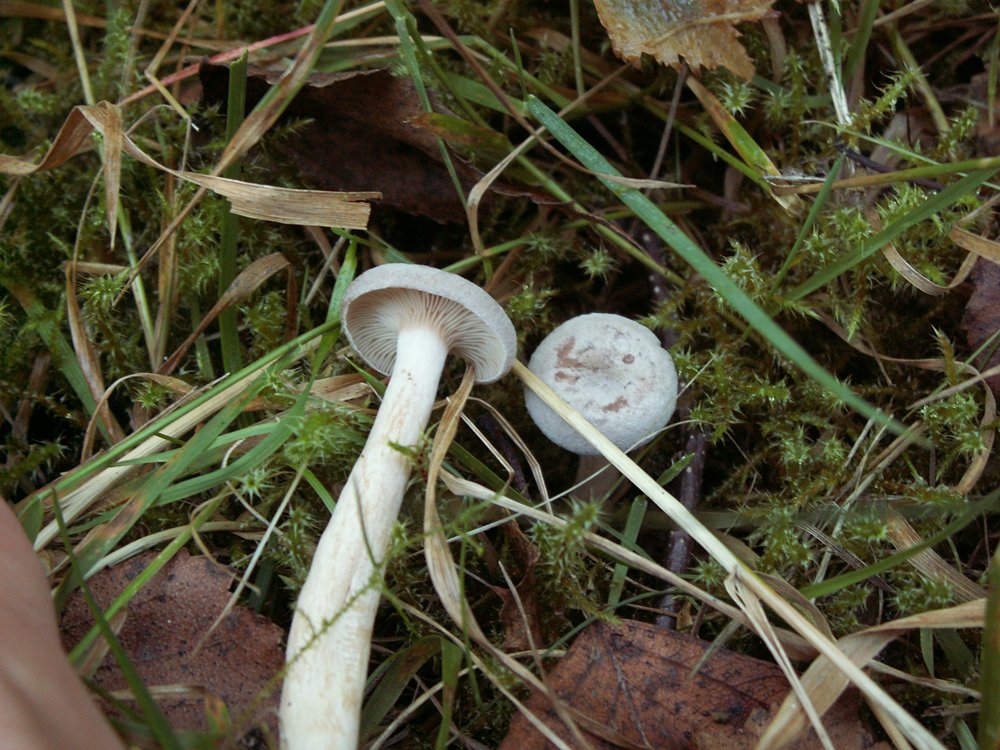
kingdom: Fungi
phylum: Basidiomycota
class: Agaricomycetes
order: Russulales
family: Russulaceae
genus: Lactarius
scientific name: Lactarius glyciosmus
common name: kokos-mælkehat
